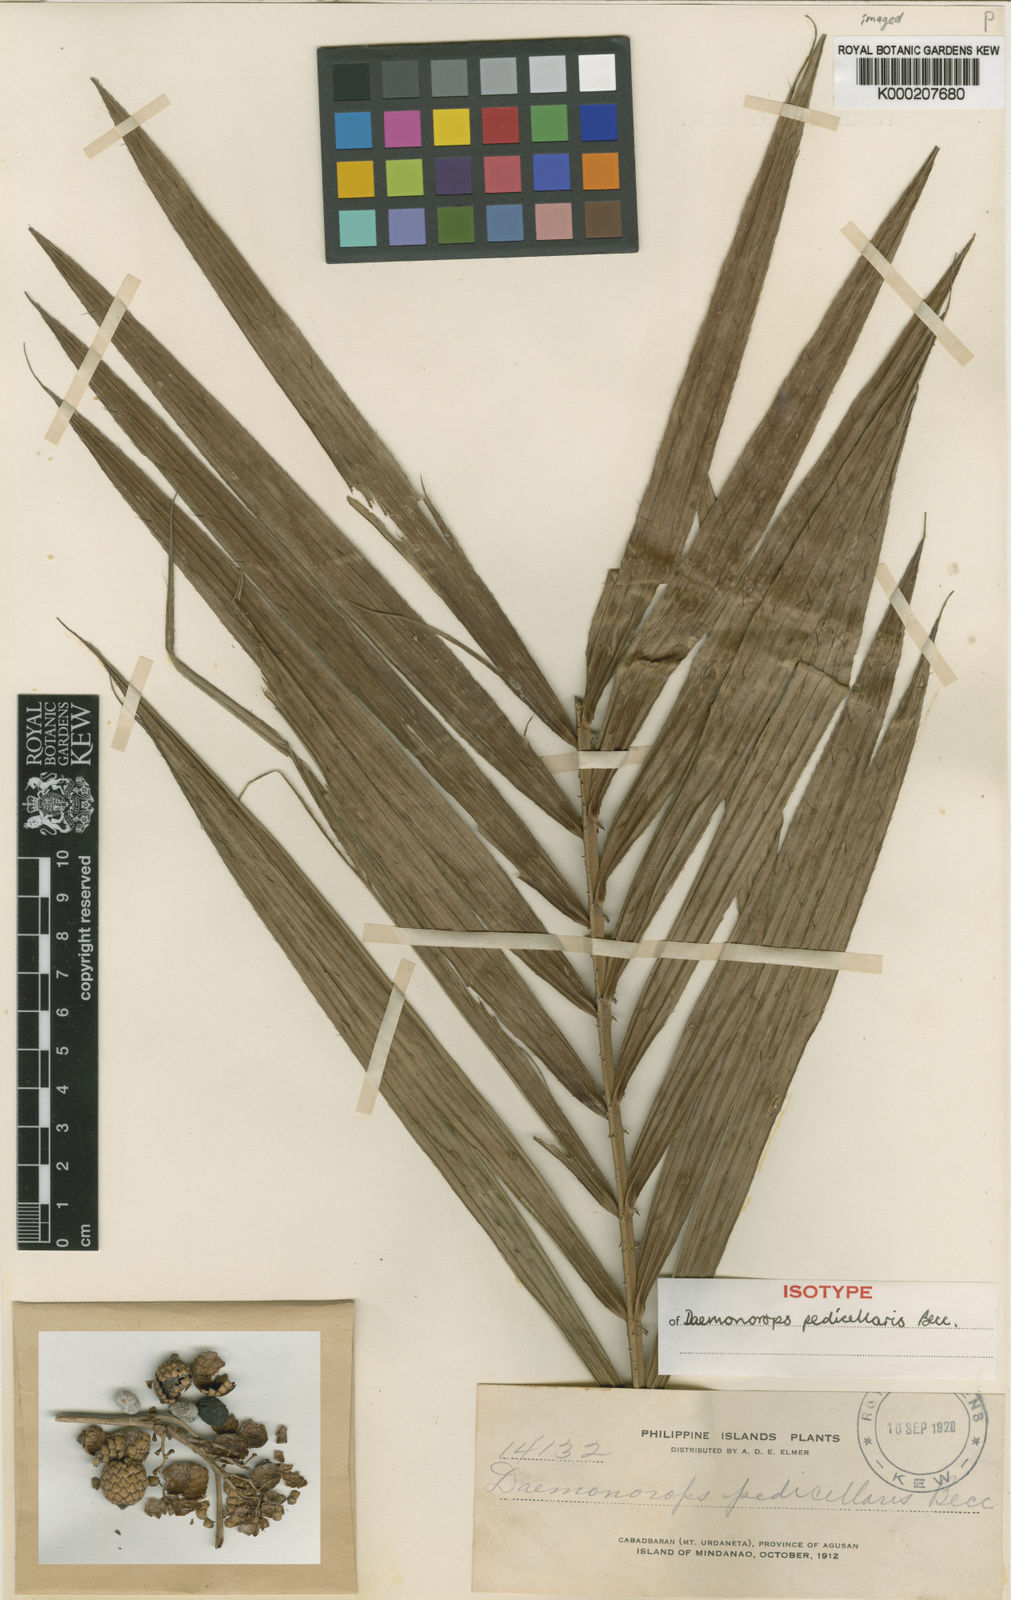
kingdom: Plantae
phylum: Tracheophyta
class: Liliopsida
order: Arecales
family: Arecaceae
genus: Calamus
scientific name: Calamus pedicellaris
